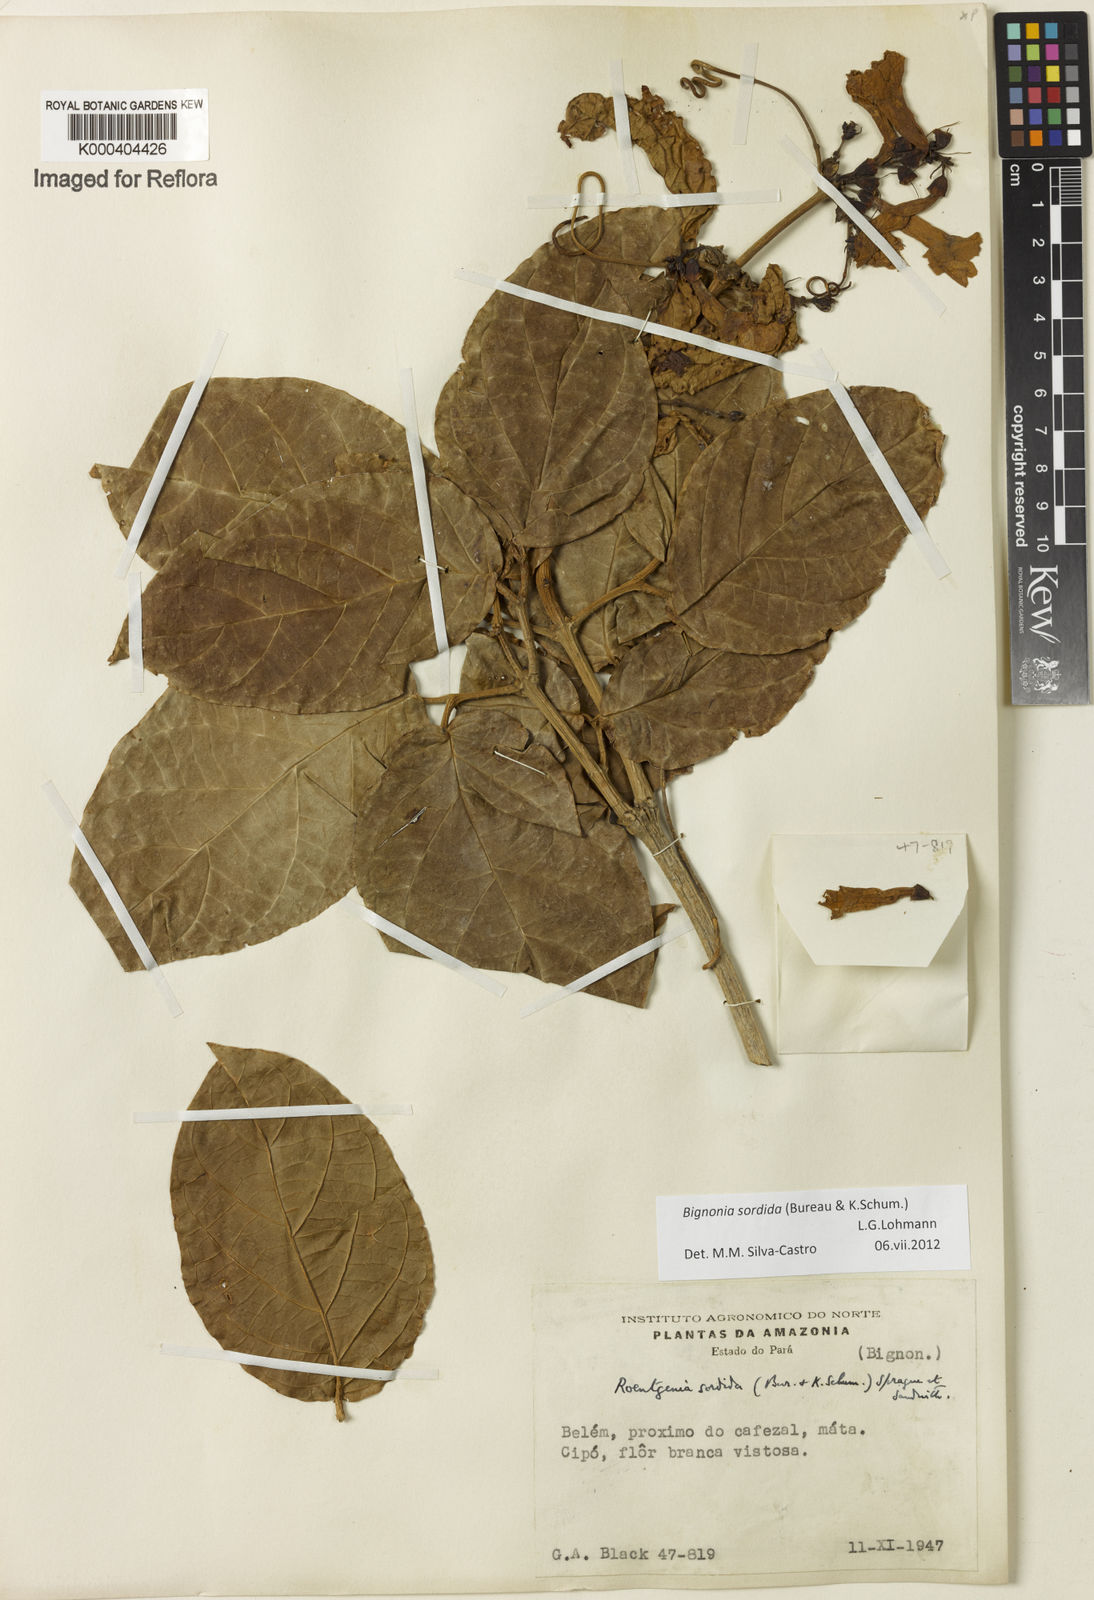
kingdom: Plantae
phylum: Tracheophyta
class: Magnoliopsida
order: Lamiales
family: Bignoniaceae
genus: Bignonia
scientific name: Bignonia sordida
